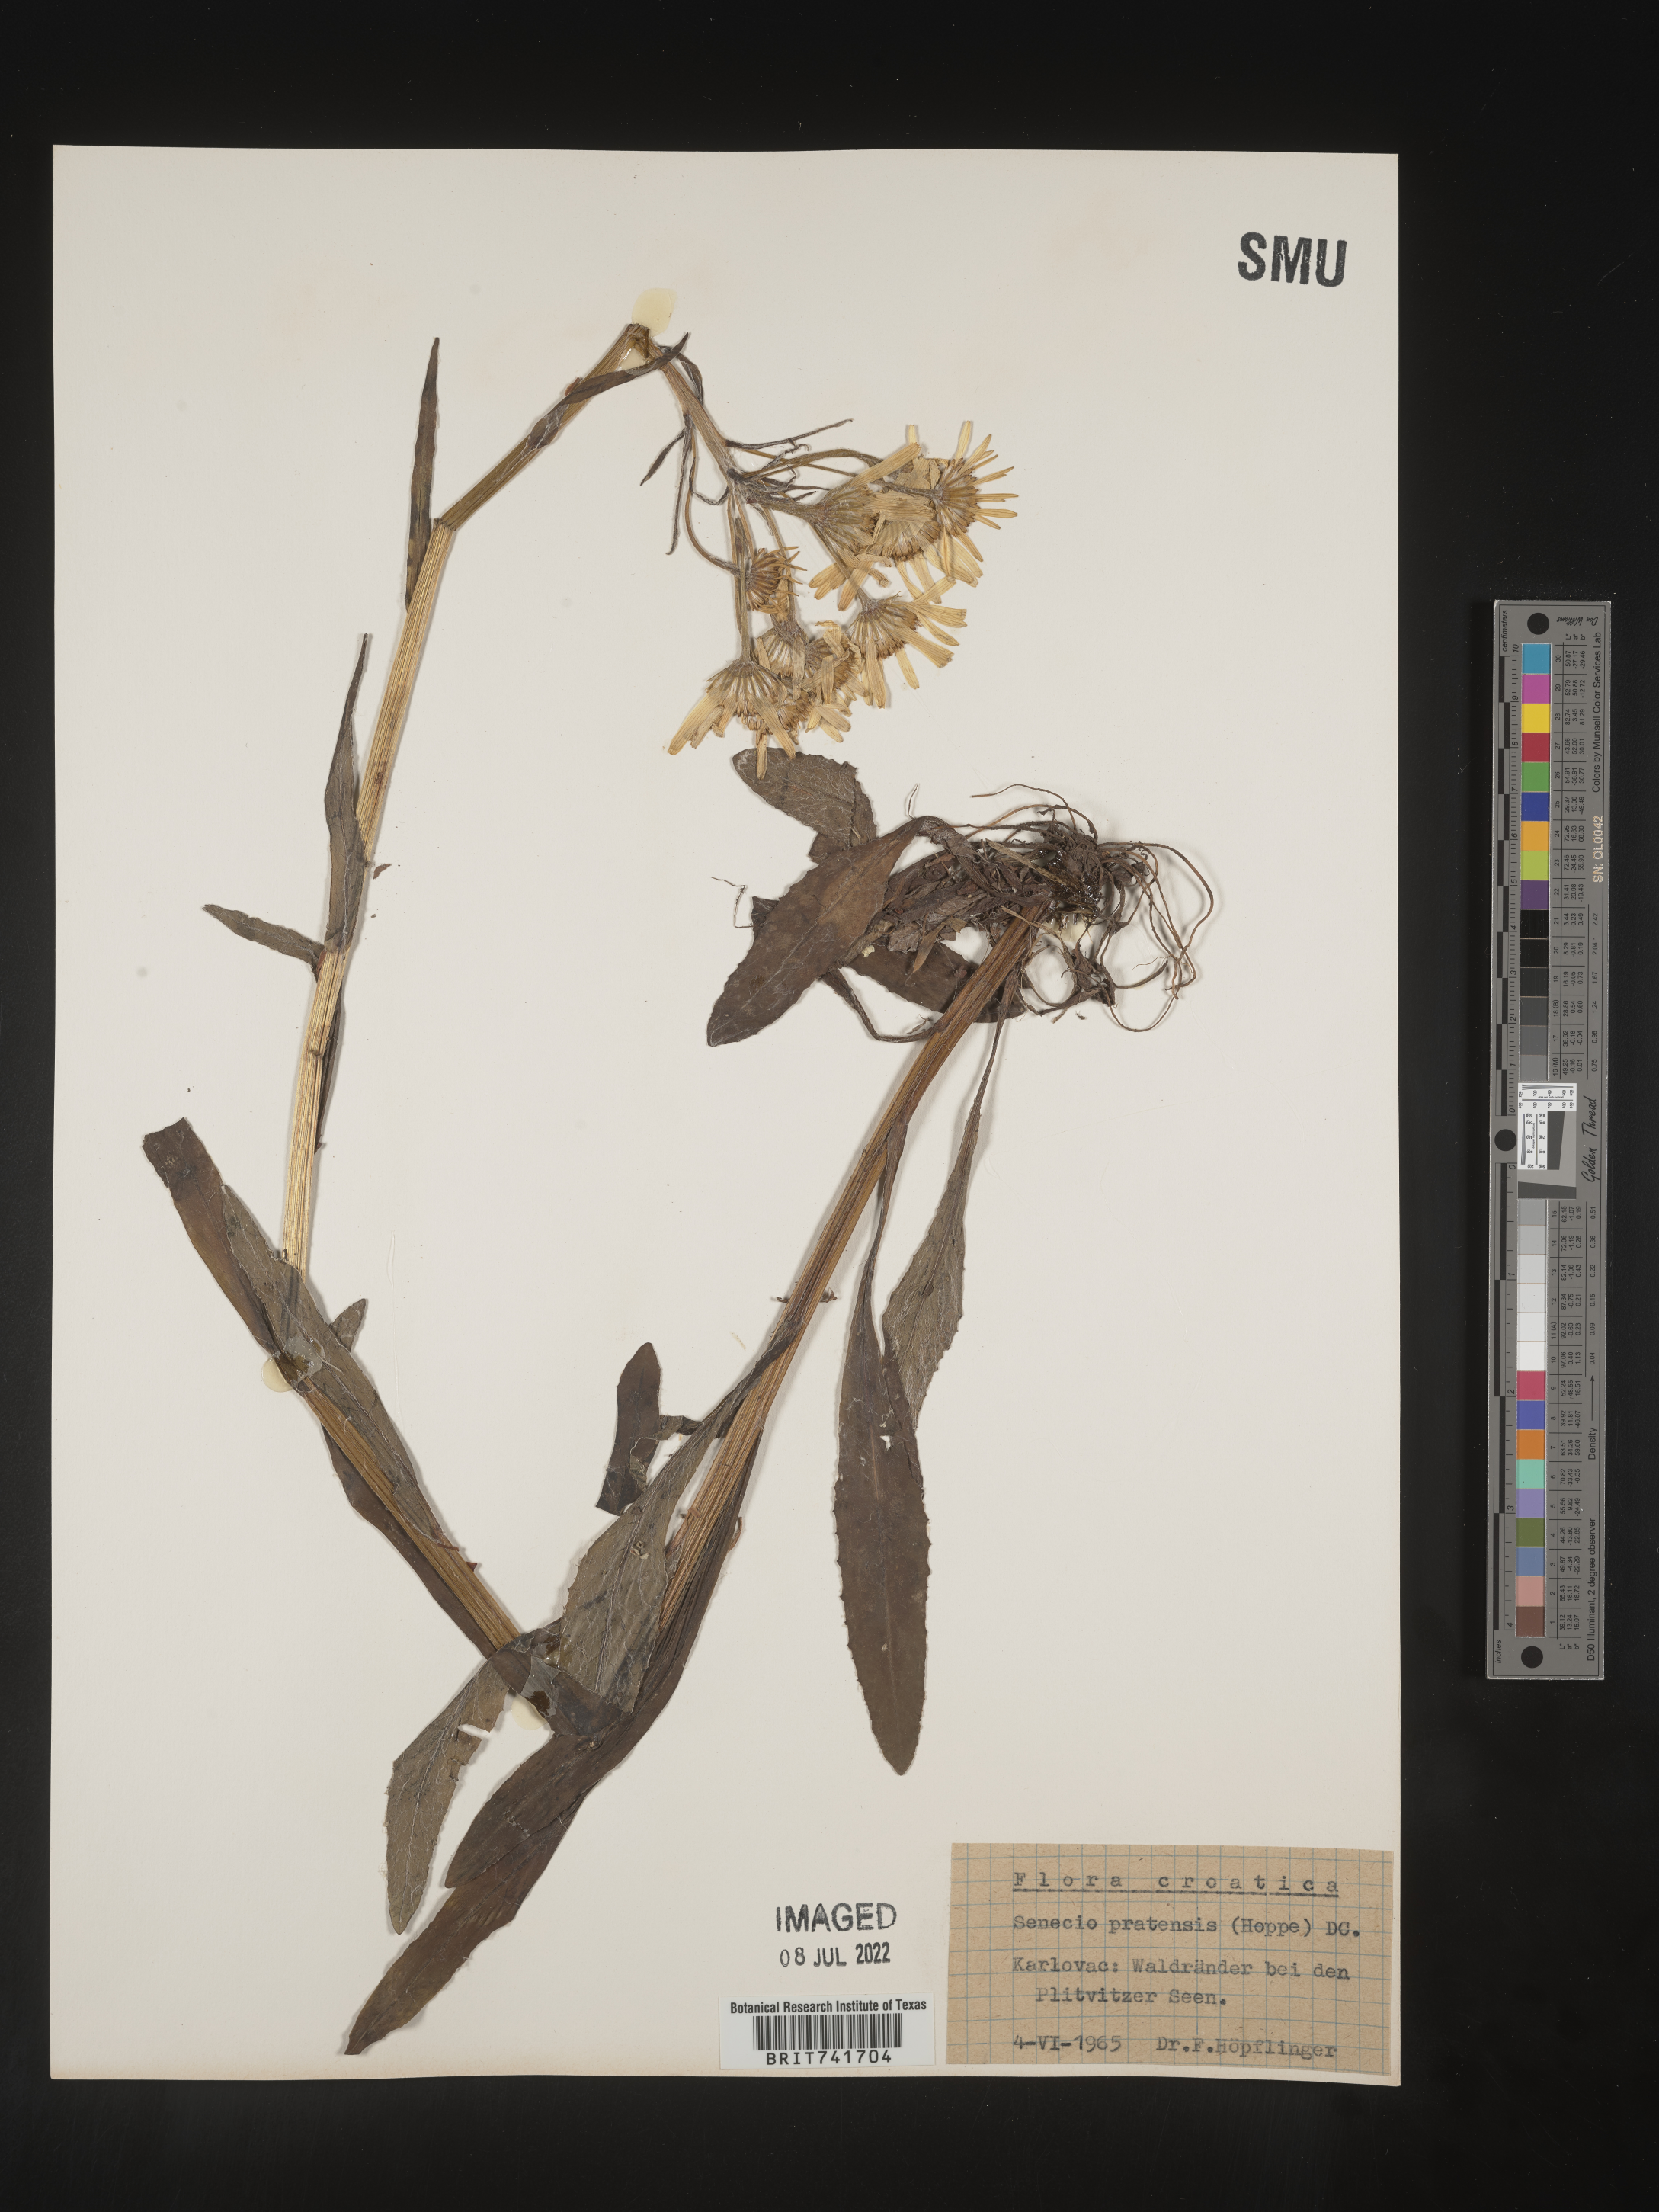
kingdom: Plantae
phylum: Tracheophyta
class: Magnoliopsida
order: Asterales
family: Asteraceae
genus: Senecio
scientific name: Senecio
